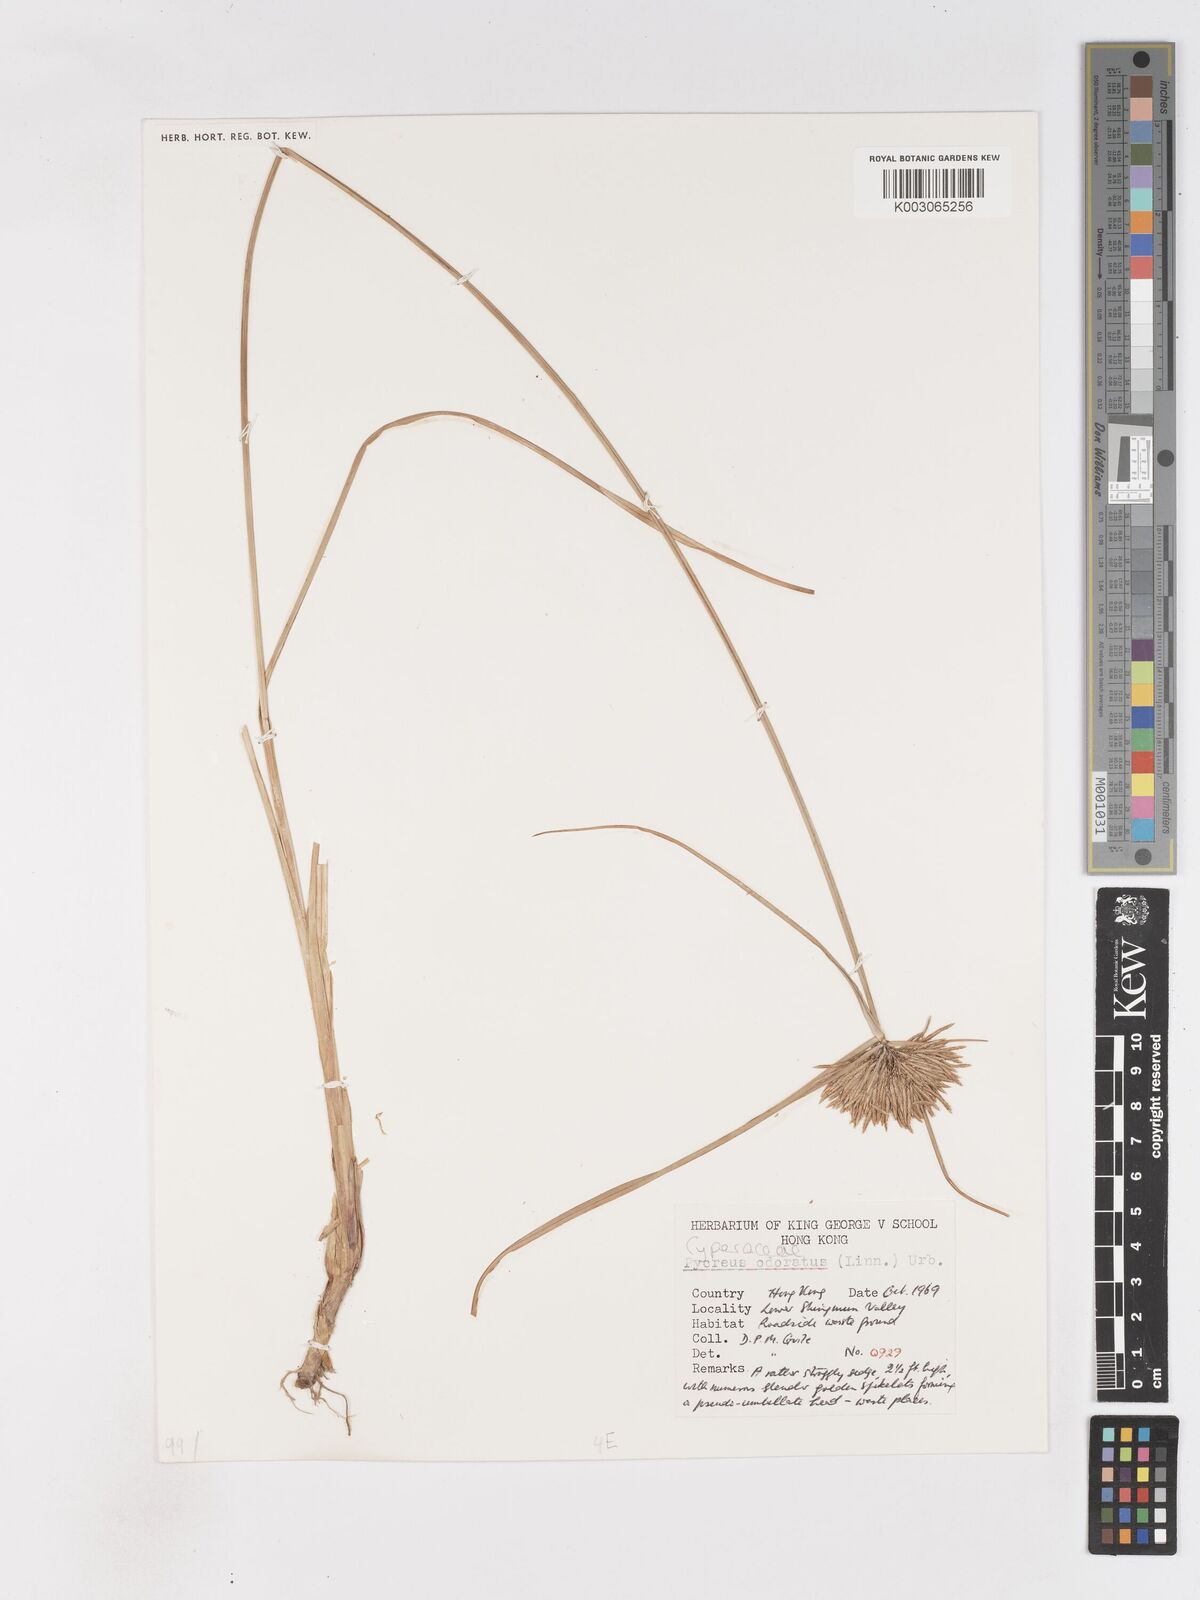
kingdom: Plantae
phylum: Tracheophyta
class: Liliopsida
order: Poales
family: Cyperaceae
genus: Cyperus
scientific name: Cyperus polystachyos
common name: Bunchy flat sedge
